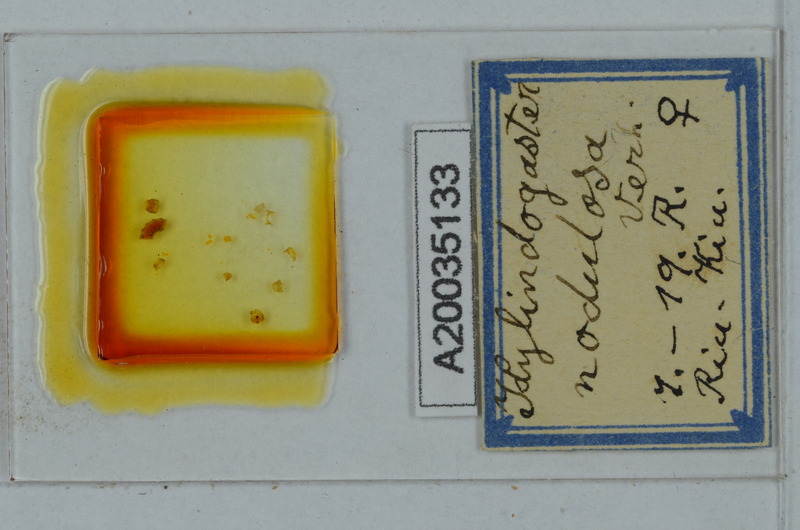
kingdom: Animalia
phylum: Arthropoda
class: Diplopoda
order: Polydesmida
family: Haplodesmidae
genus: Eutrichodesmus
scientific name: Eutrichodesmus nodulosus
